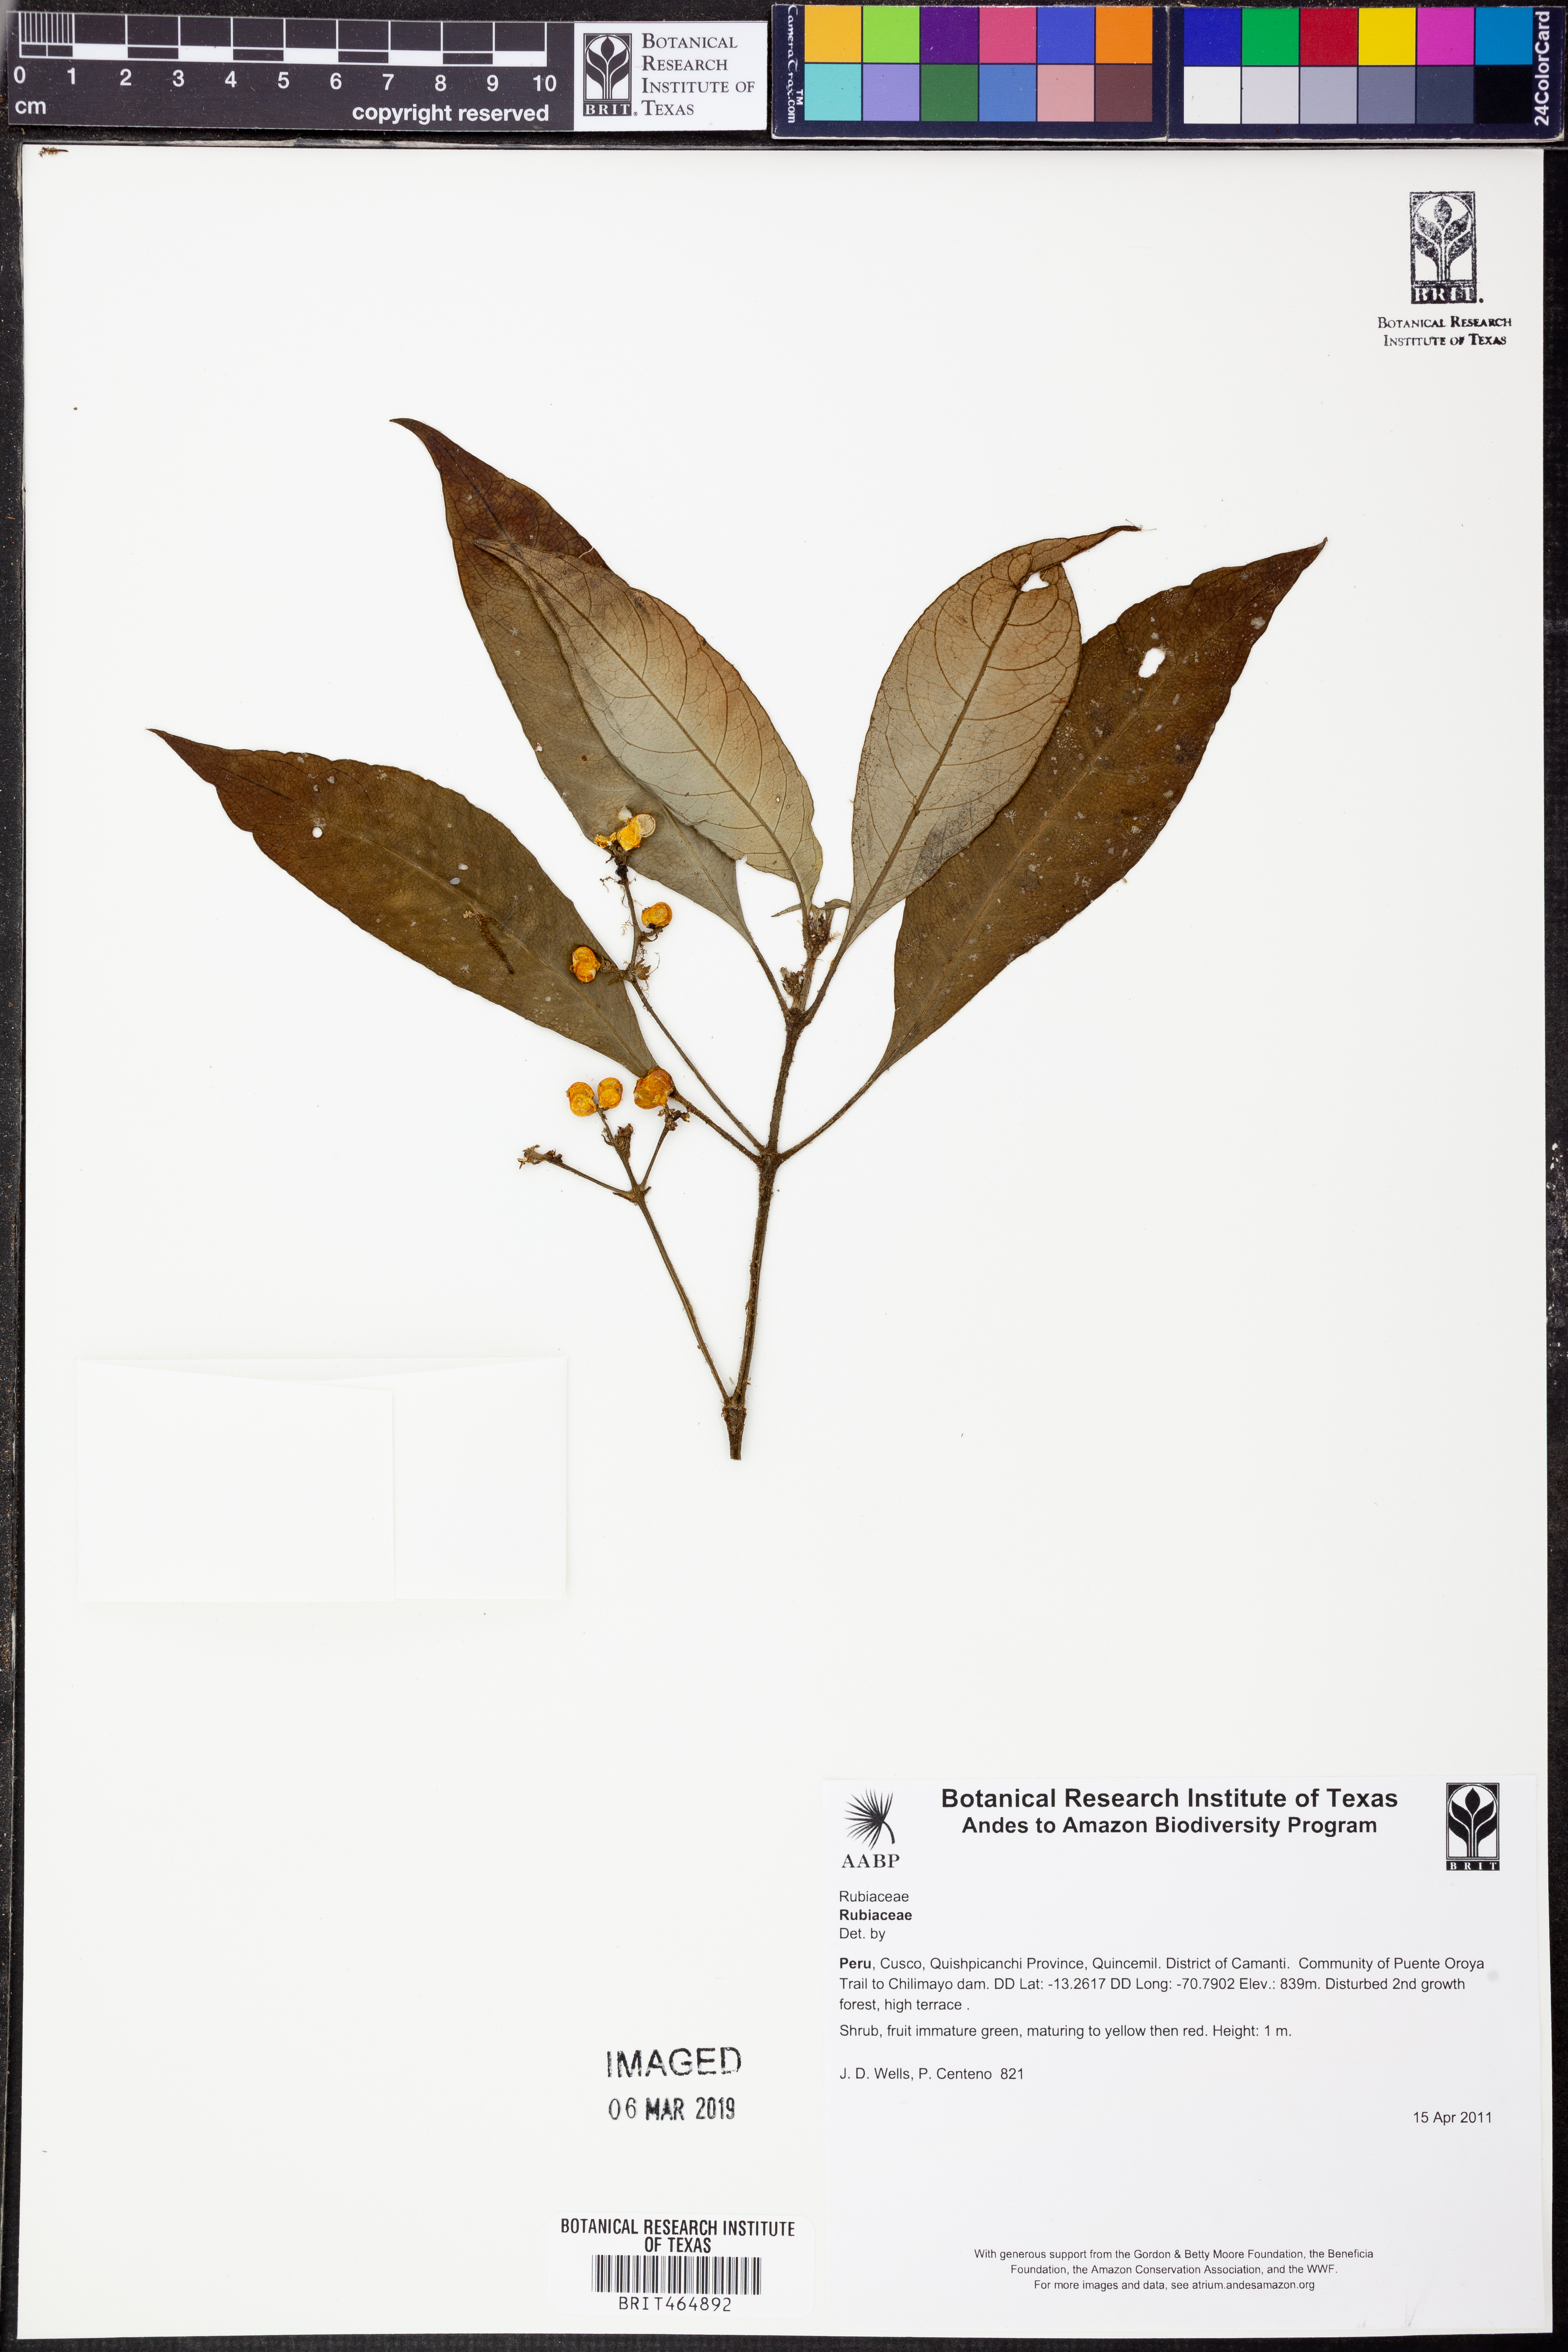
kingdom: Plantae
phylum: Tracheophyta
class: Magnoliopsida
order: Gentianales
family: Rubiaceae
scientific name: Rubiaceae
